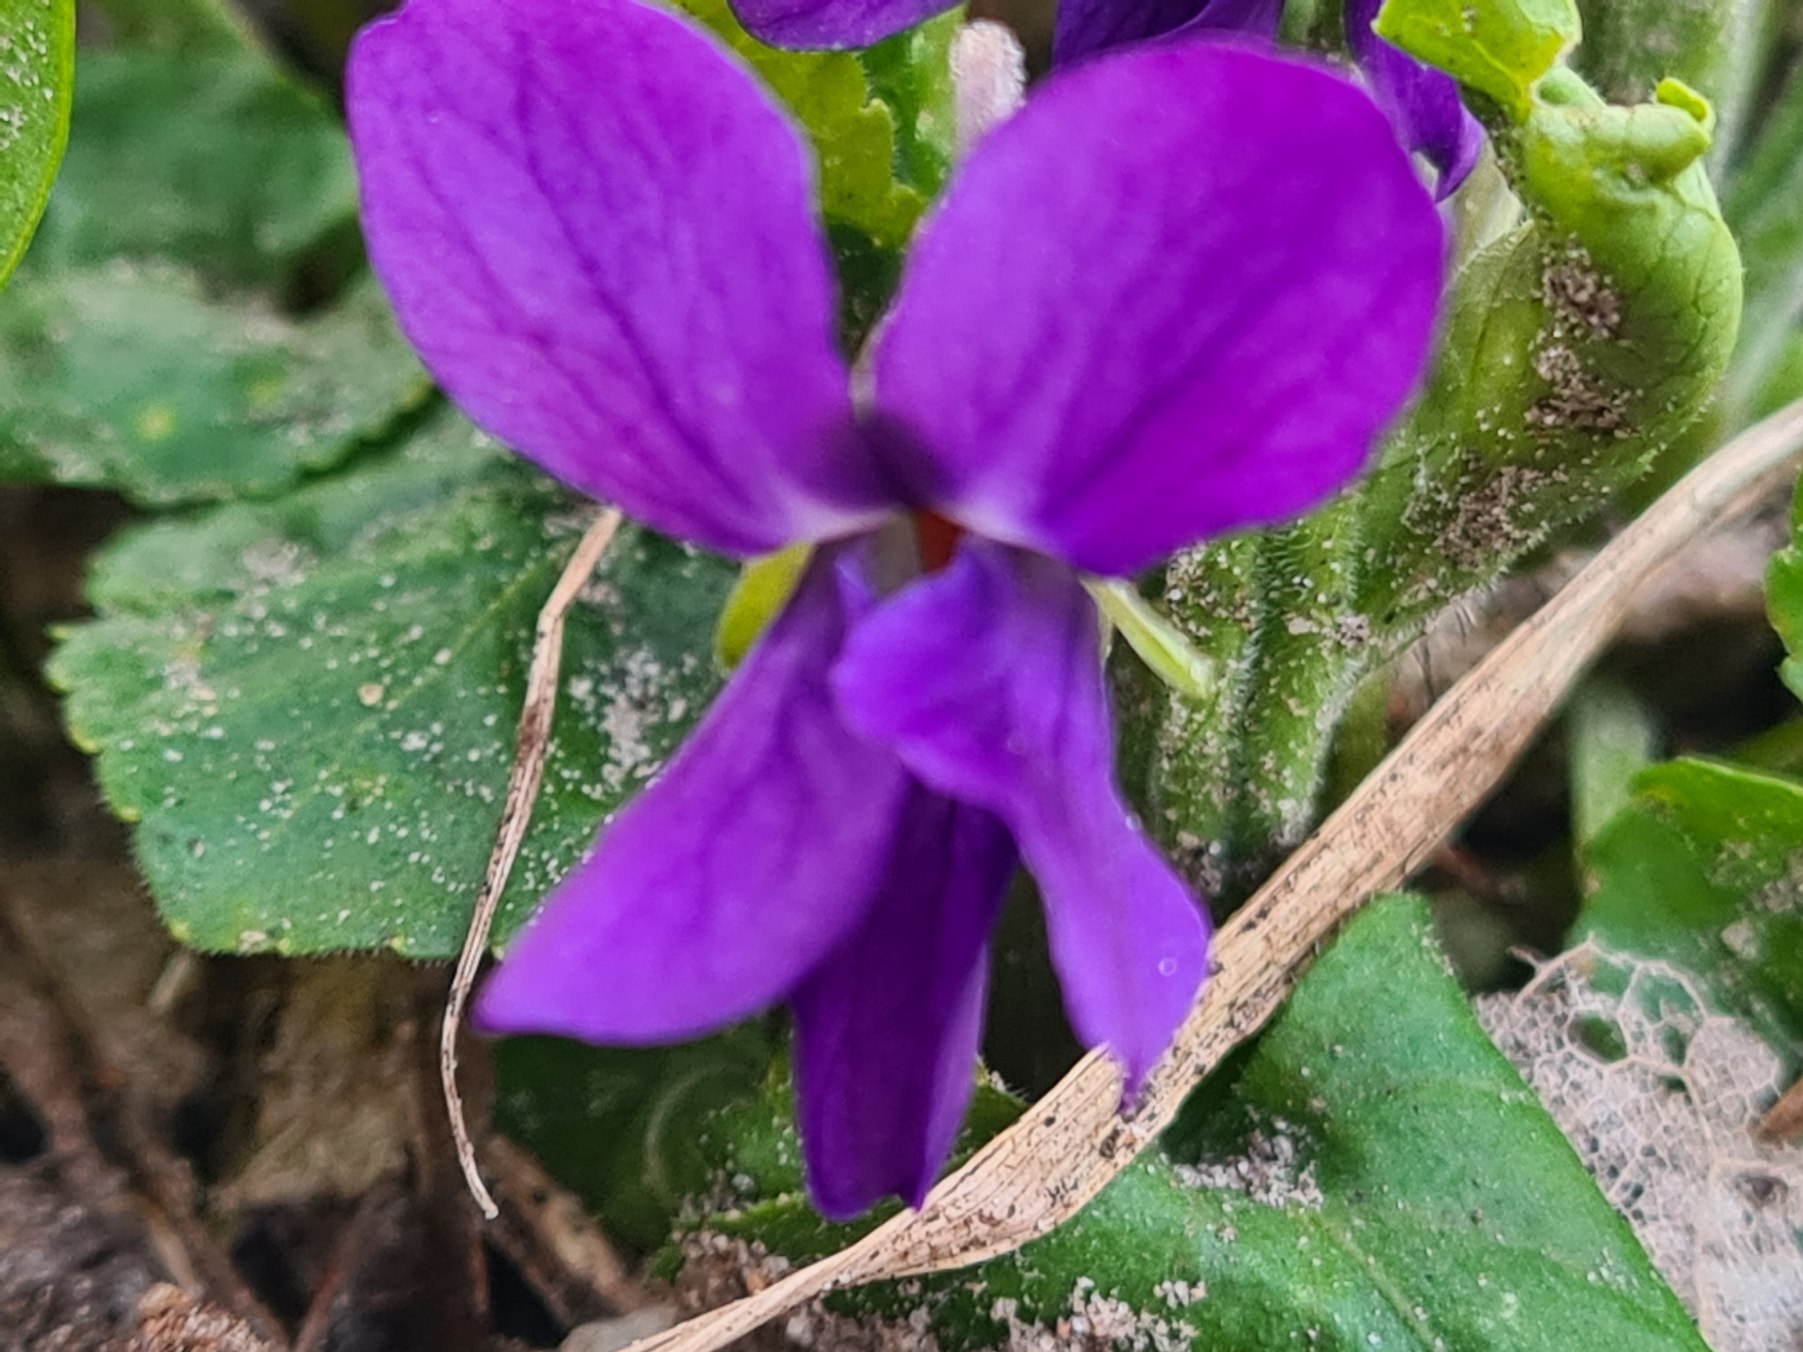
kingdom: Plantae
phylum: Tracheophyta
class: Magnoliopsida
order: Malpighiales
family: Violaceae
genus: Viola
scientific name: Viola odorata
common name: Marts-viol
